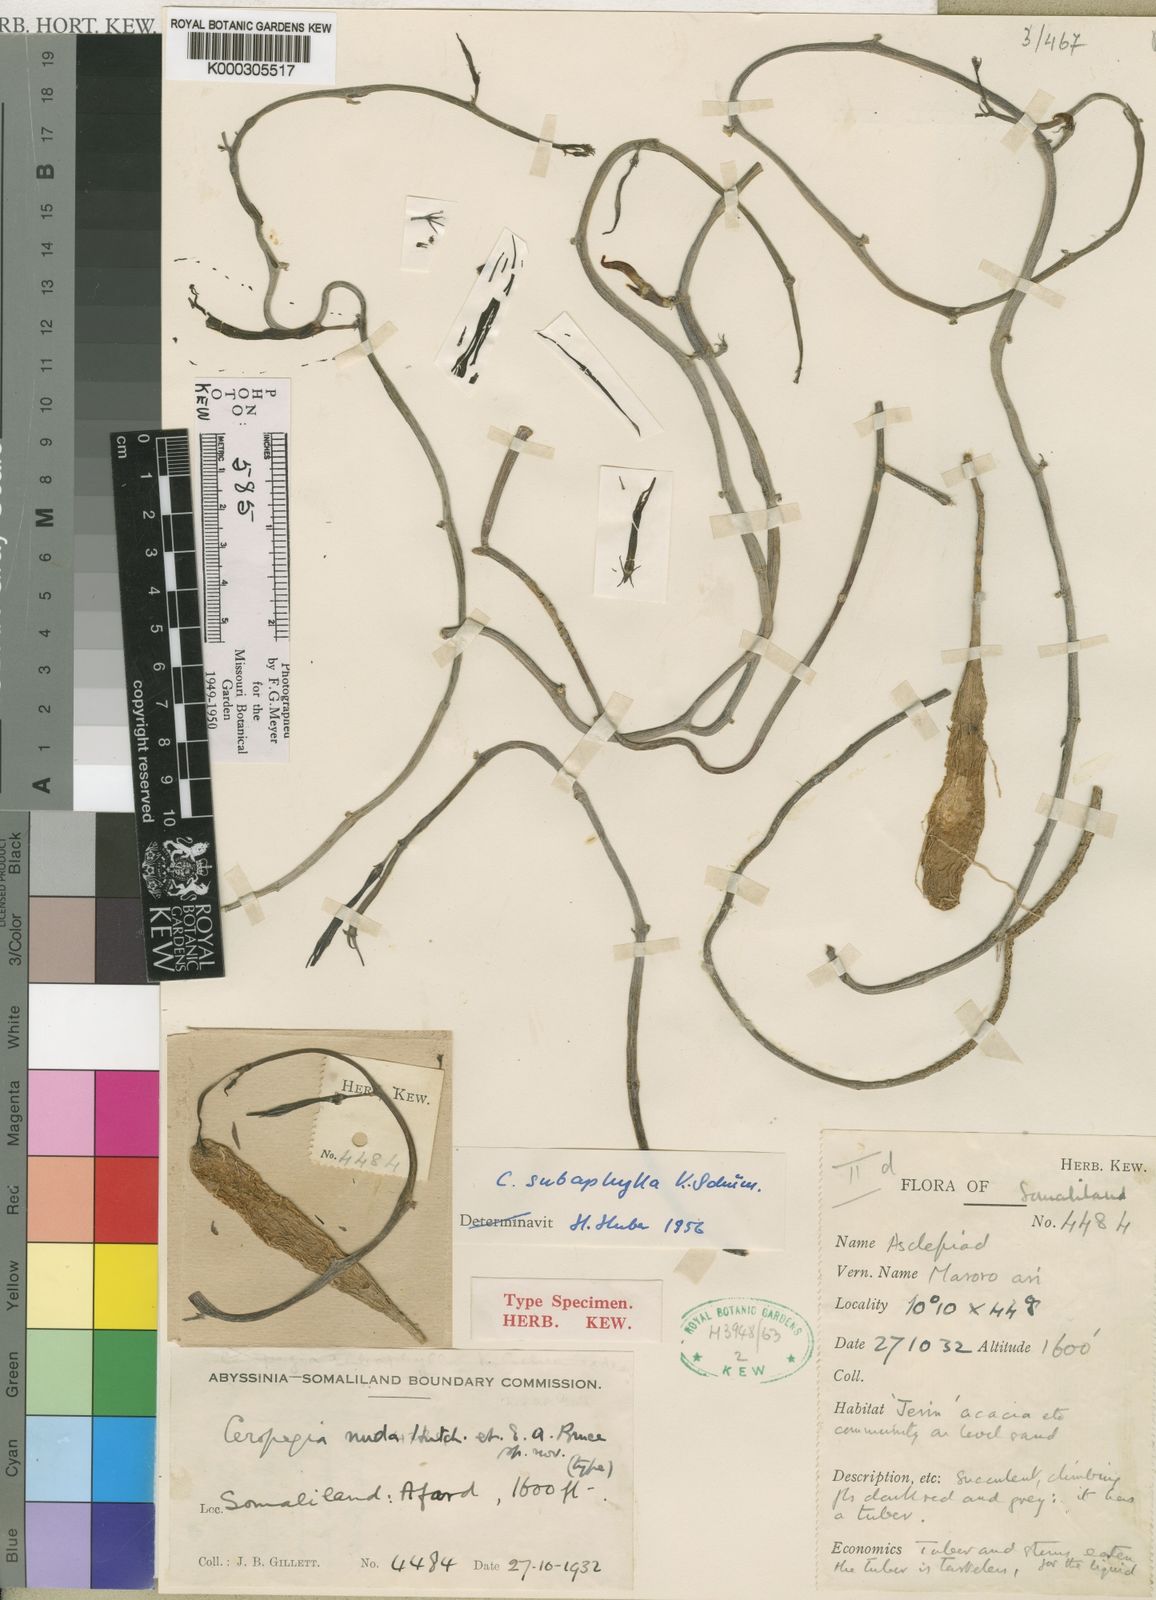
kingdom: Plantae
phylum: Tracheophyta
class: Magnoliopsida
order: Gentianales
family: Apocynaceae
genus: Ceropegia
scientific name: Ceropegia subaphylla
